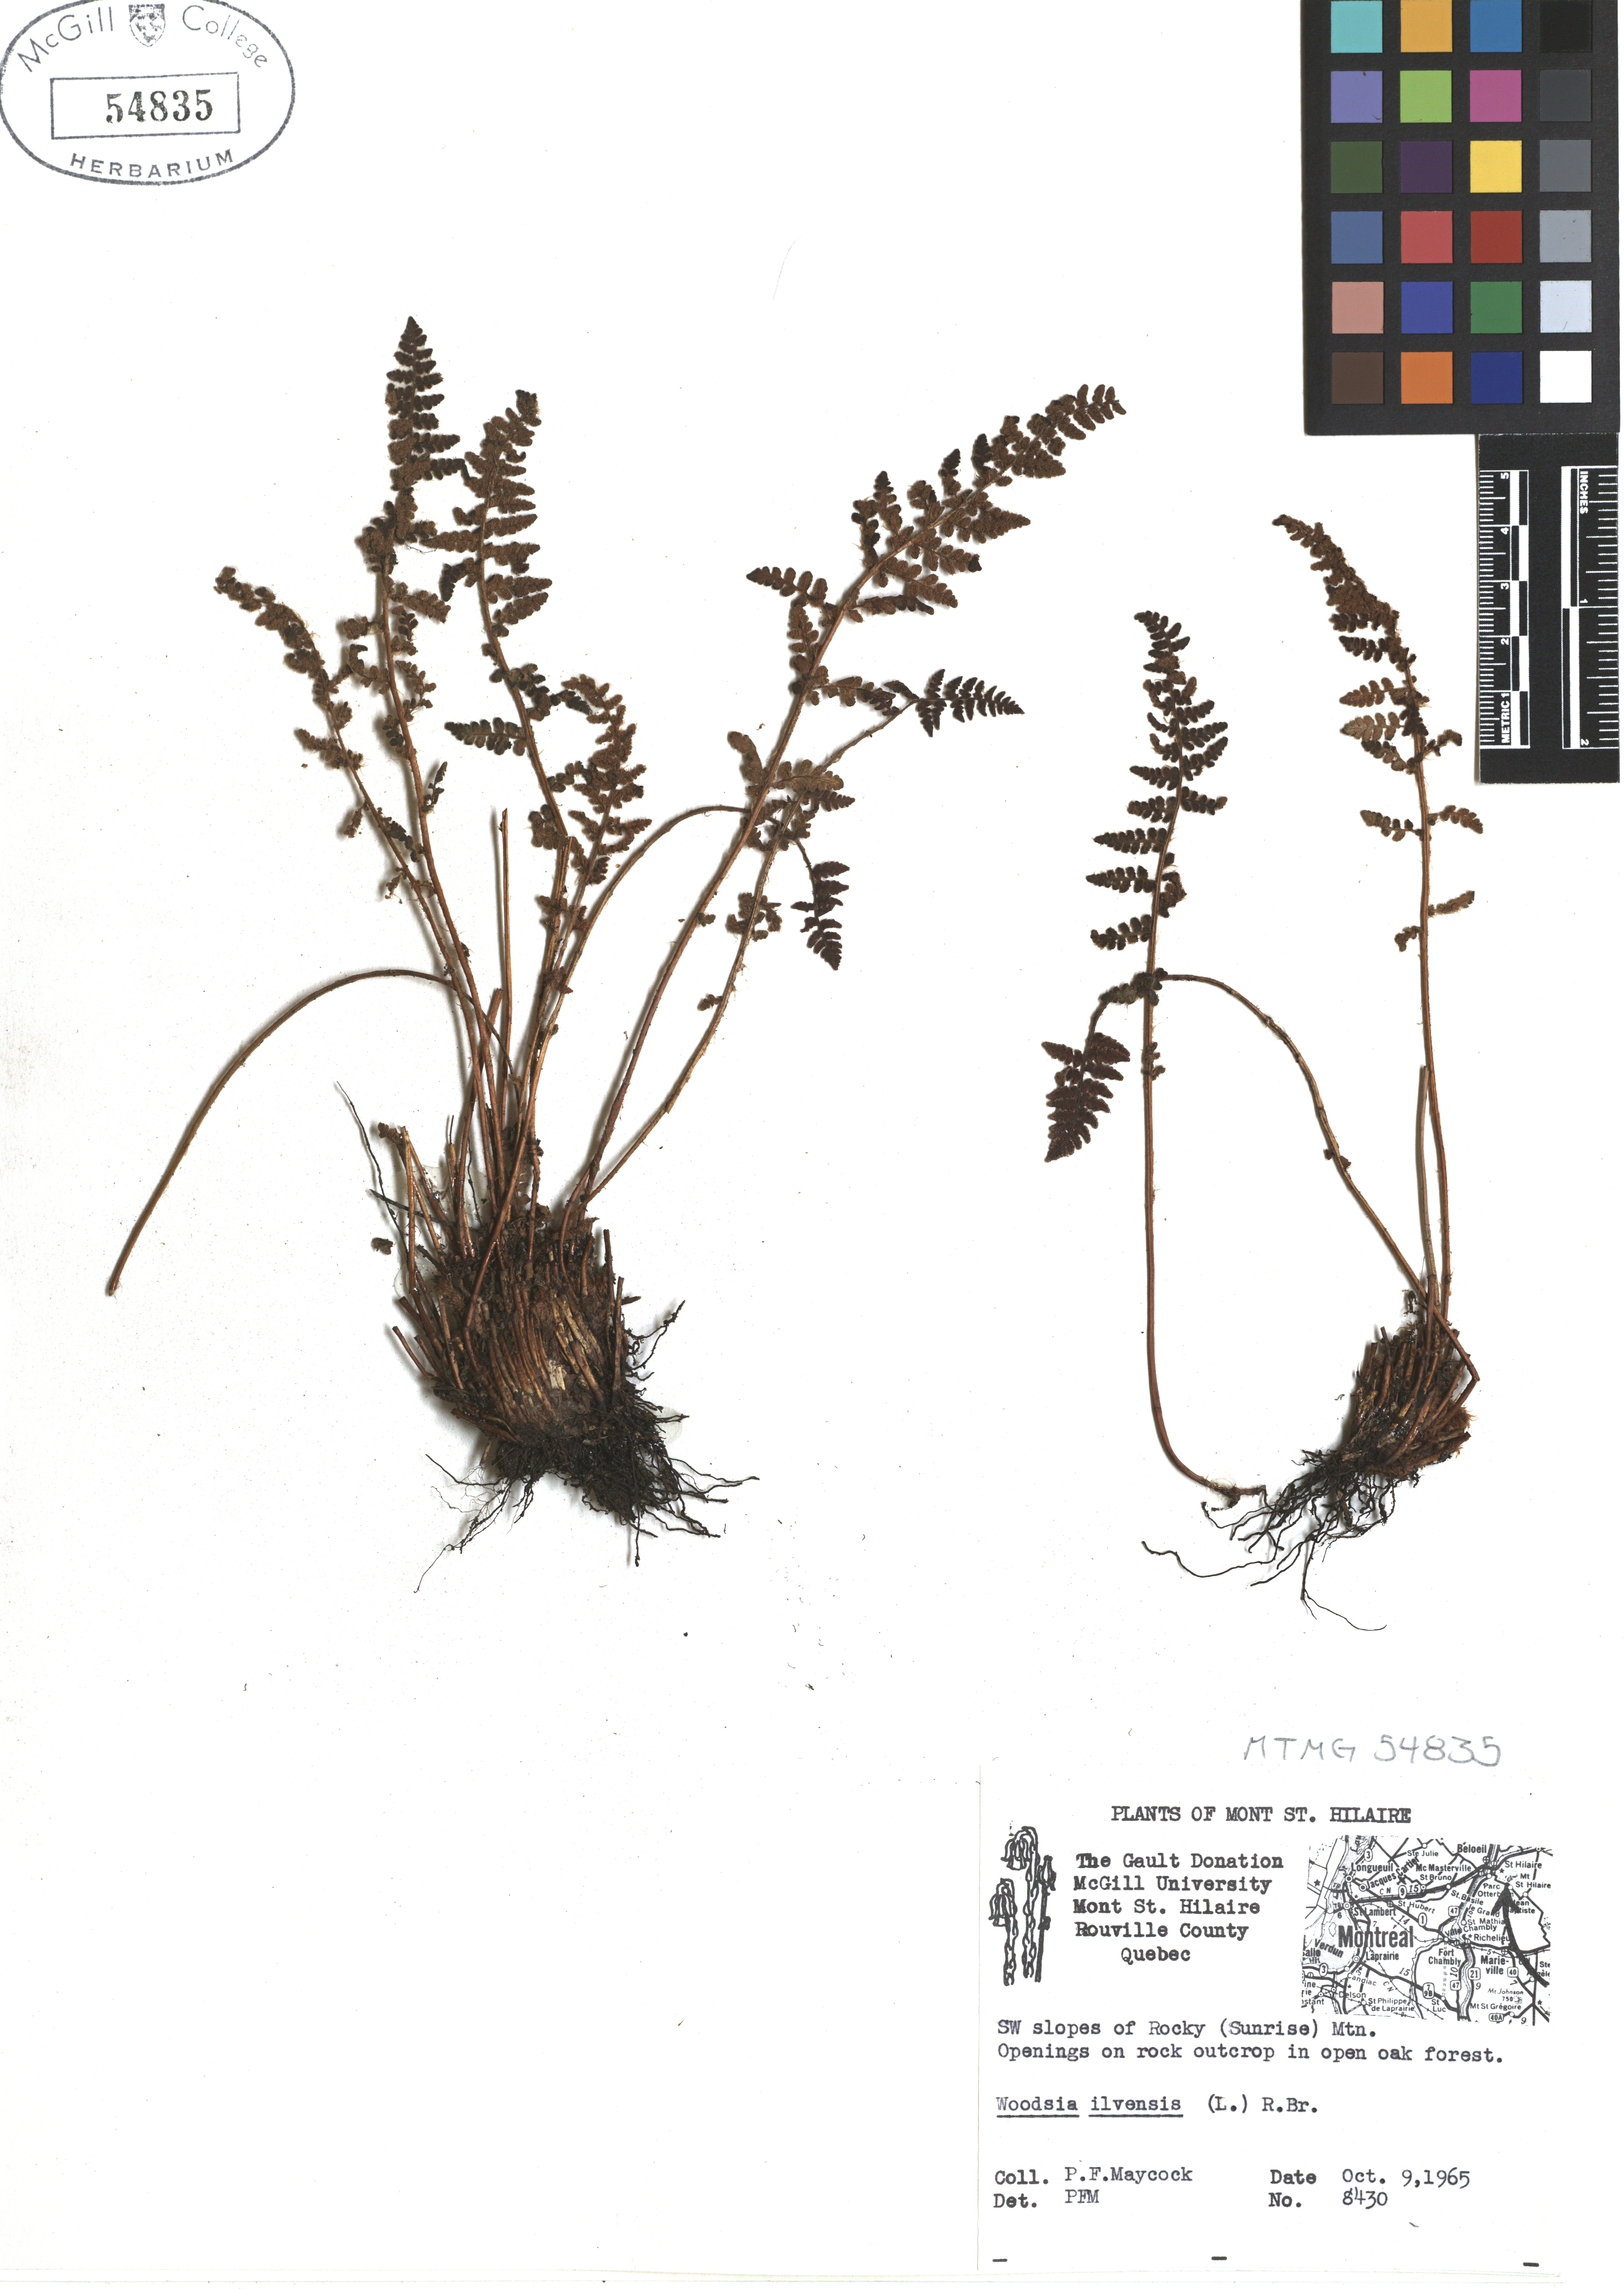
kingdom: Plantae
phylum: Tracheophyta
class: Polypodiopsida
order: Polypodiales
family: Woodsiaceae
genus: Woodsia
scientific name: Woodsia ilvensis
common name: Fragrant woodsia
